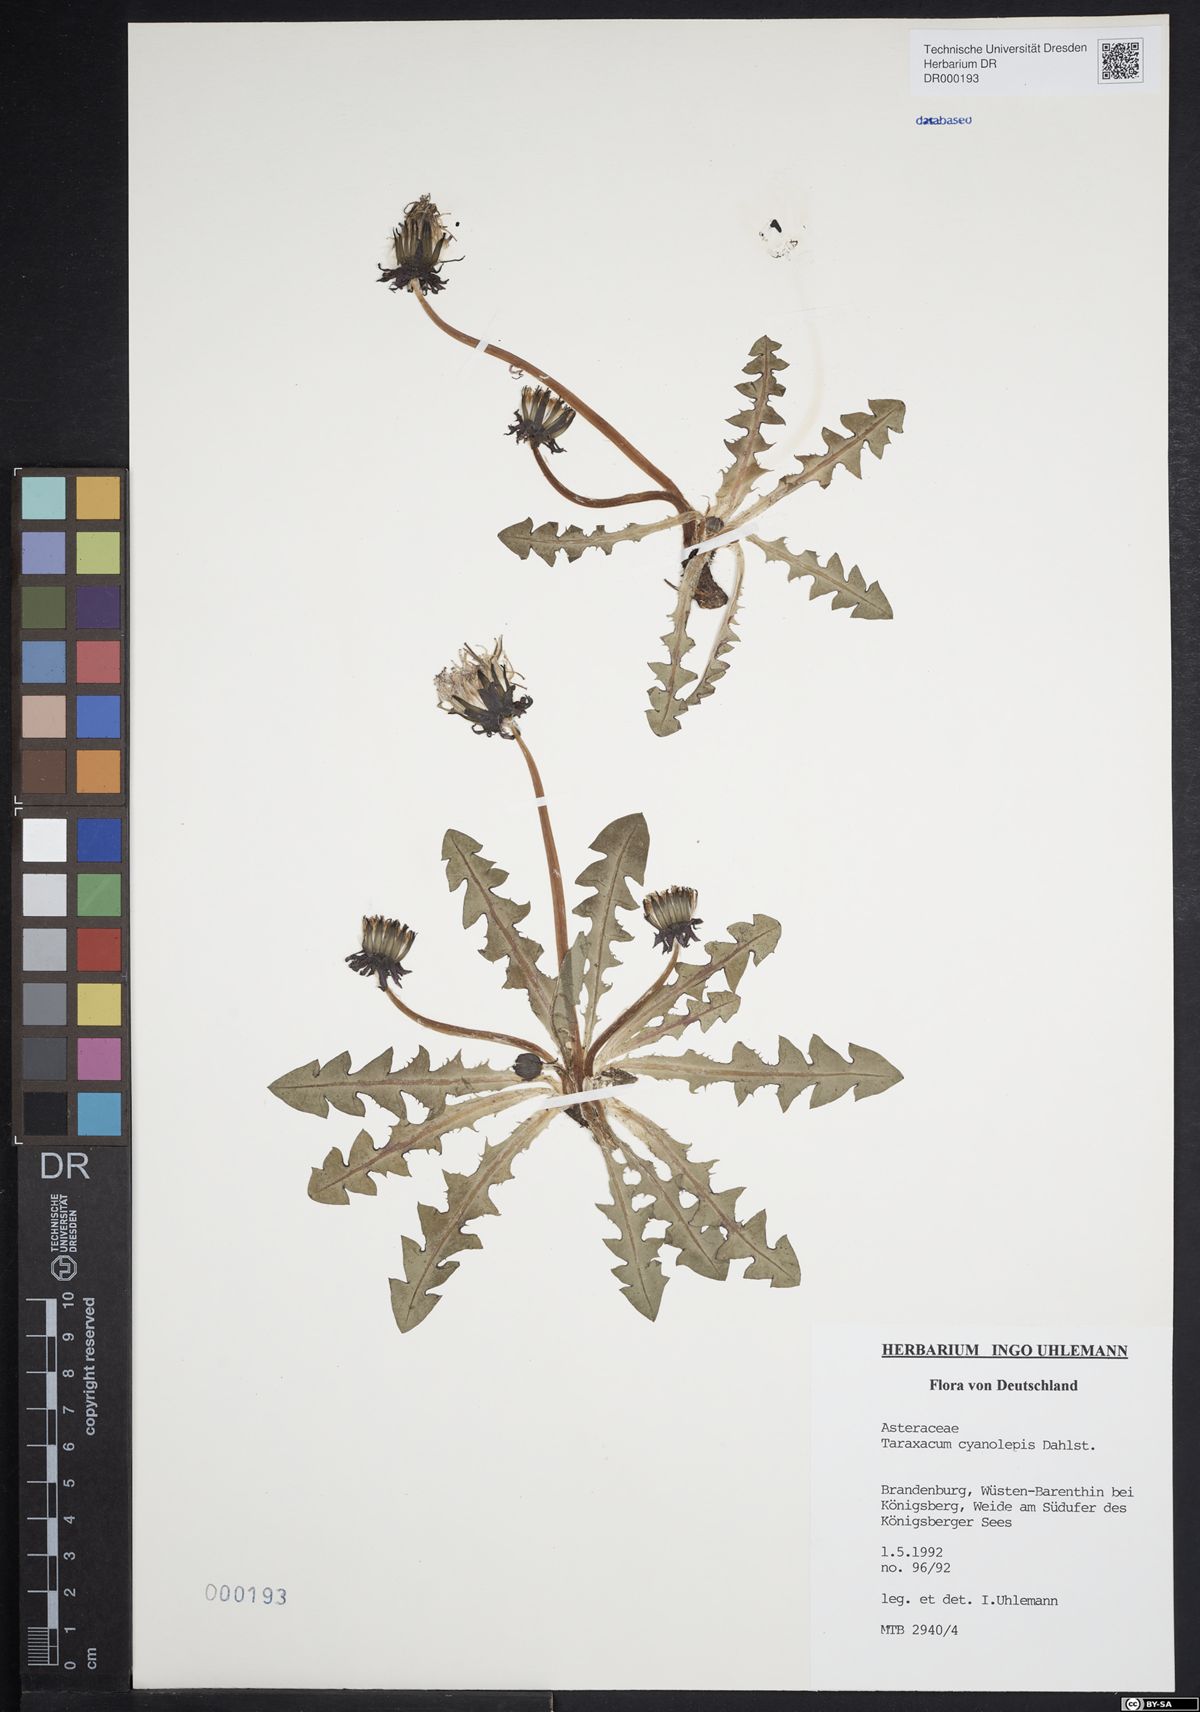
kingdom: Plantae
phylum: Tracheophyta
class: Magnoliopsida
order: Asterales
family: Asteraceae
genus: Taraxacum
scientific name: Taraxacum cyanolepis
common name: Bluish-bracted dandelion
